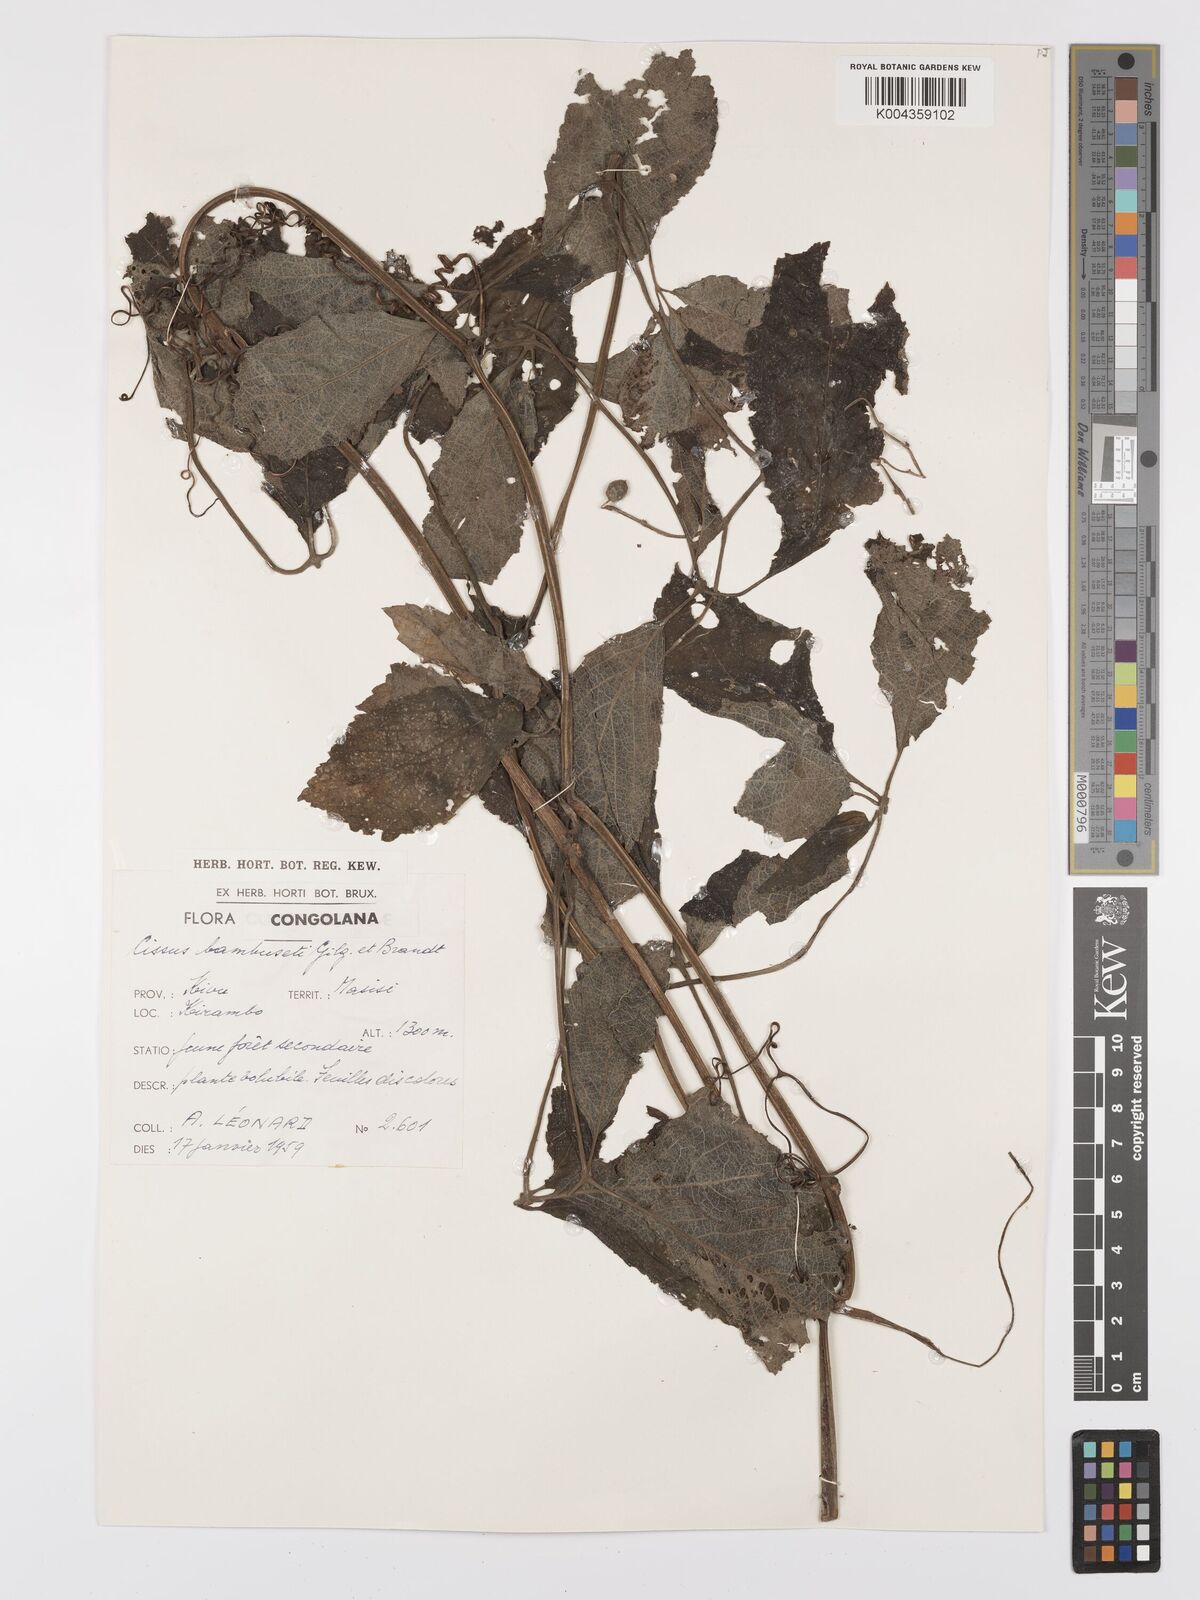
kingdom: Plantae
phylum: Tracheophyta
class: Magnoliopsida
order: Vitales
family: Vitaceae
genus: Cyphostemma
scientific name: Cyphostemma bambuseti
